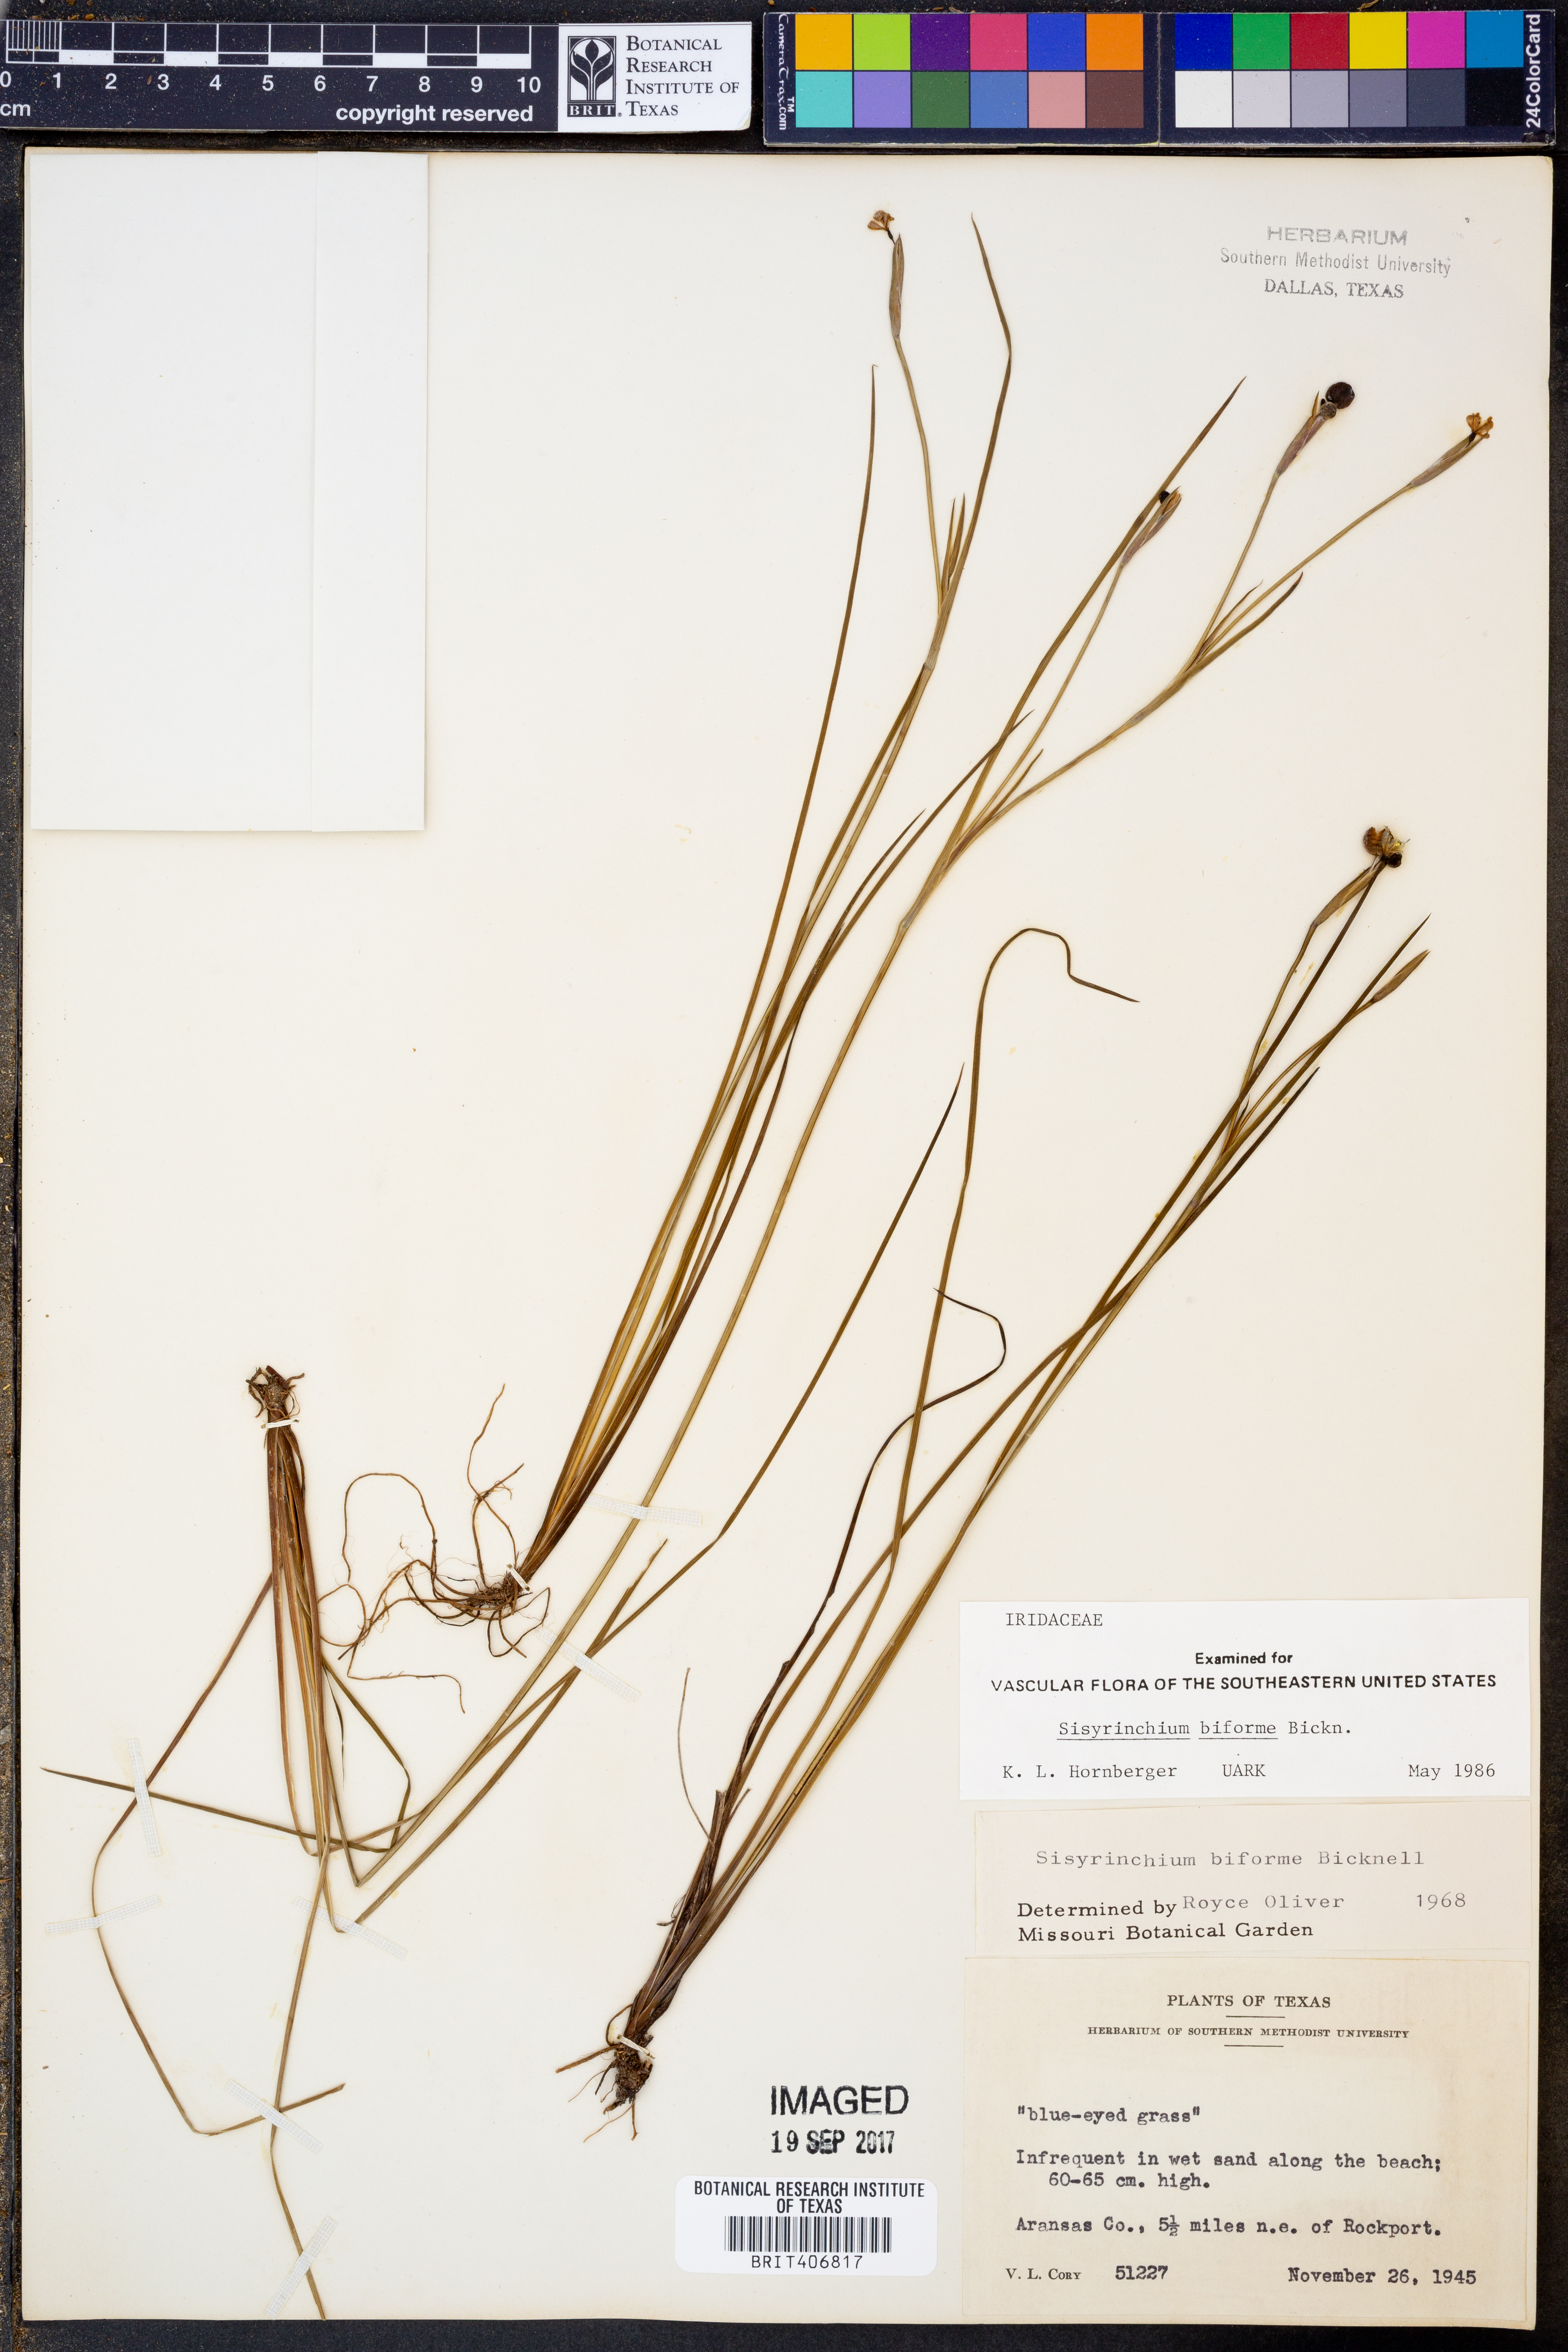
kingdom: Plantae
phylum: Tracheophyta
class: Liliopsida
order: Asparagales
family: Iridaceae
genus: Sisyrinchium
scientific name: Sisyrinchium biforme
